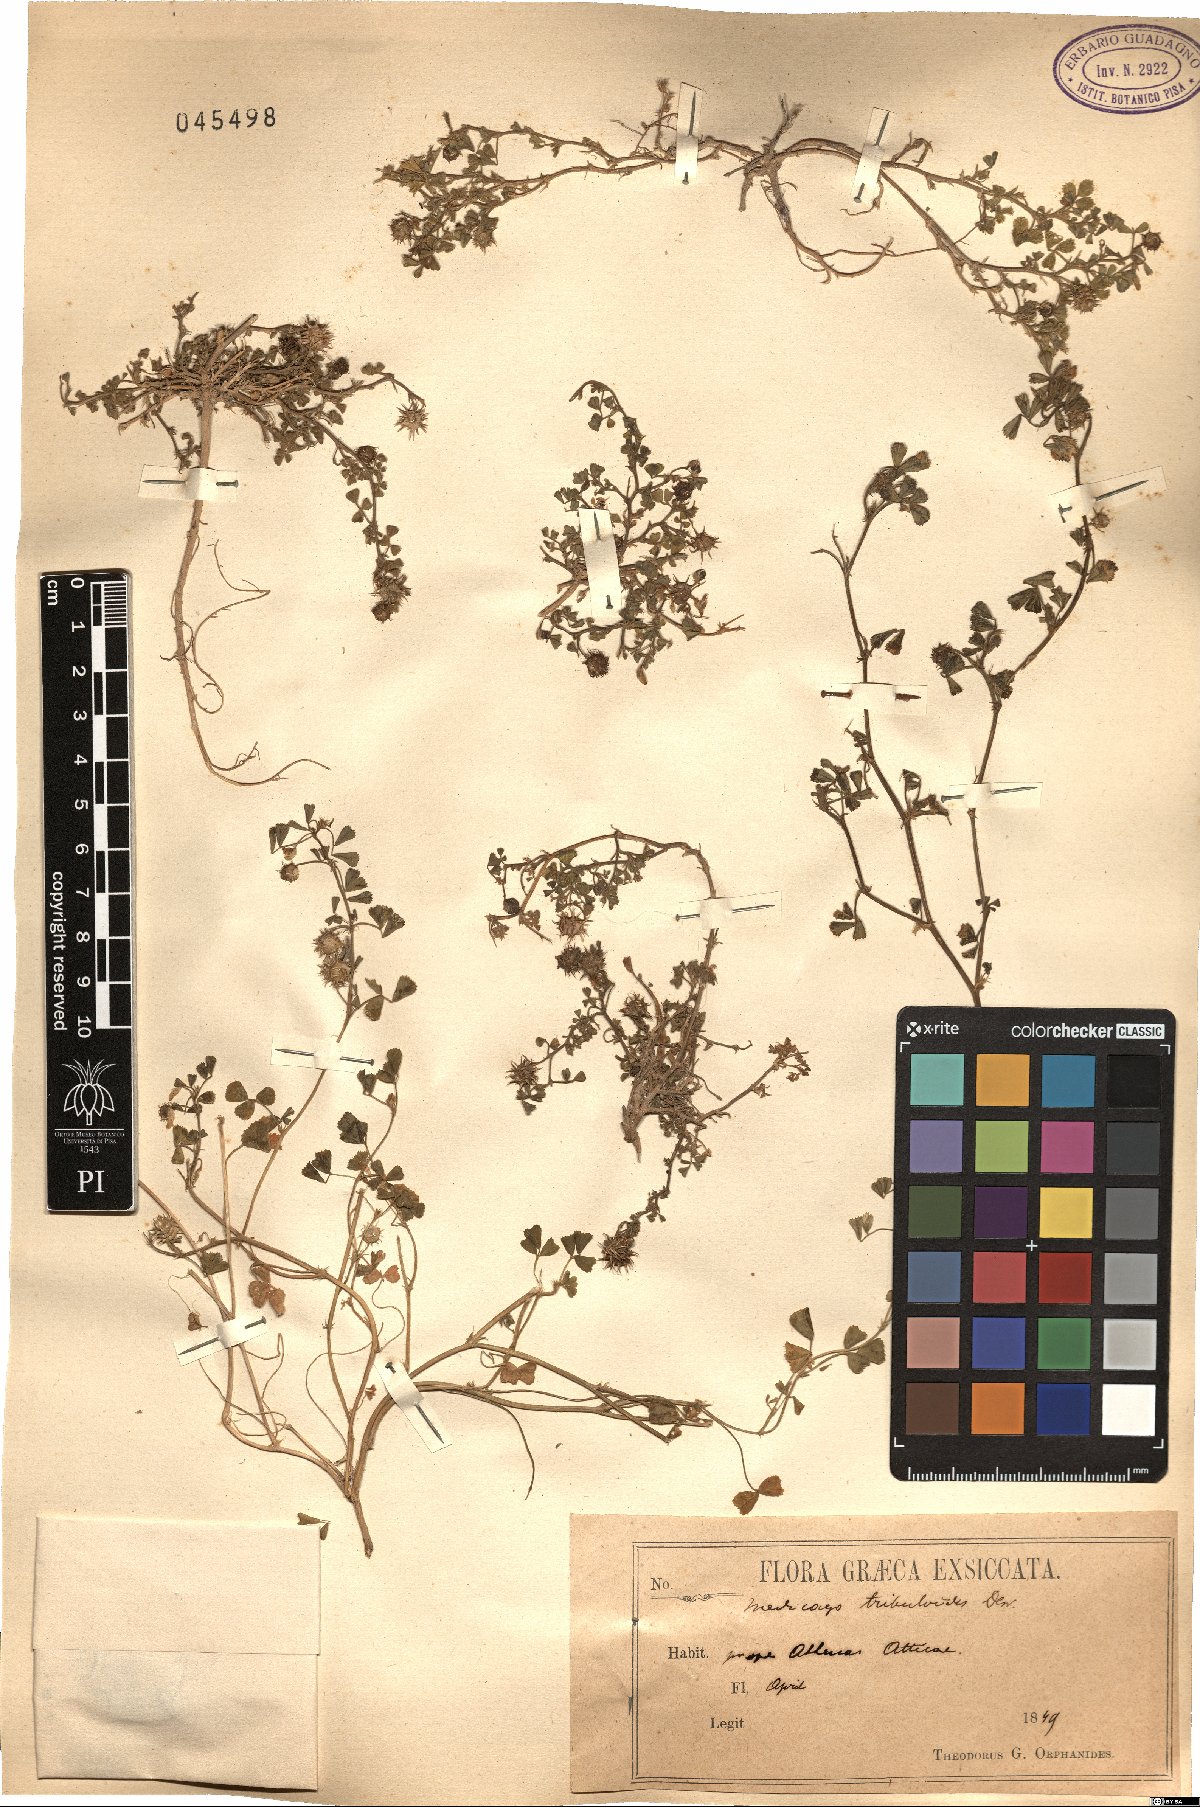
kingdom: Plantae
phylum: Tracheophyta
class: Magnoliopsida
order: Fabales
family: Fabaceae
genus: Medicago
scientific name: Medicago truncatula
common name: Strong-spined medick
